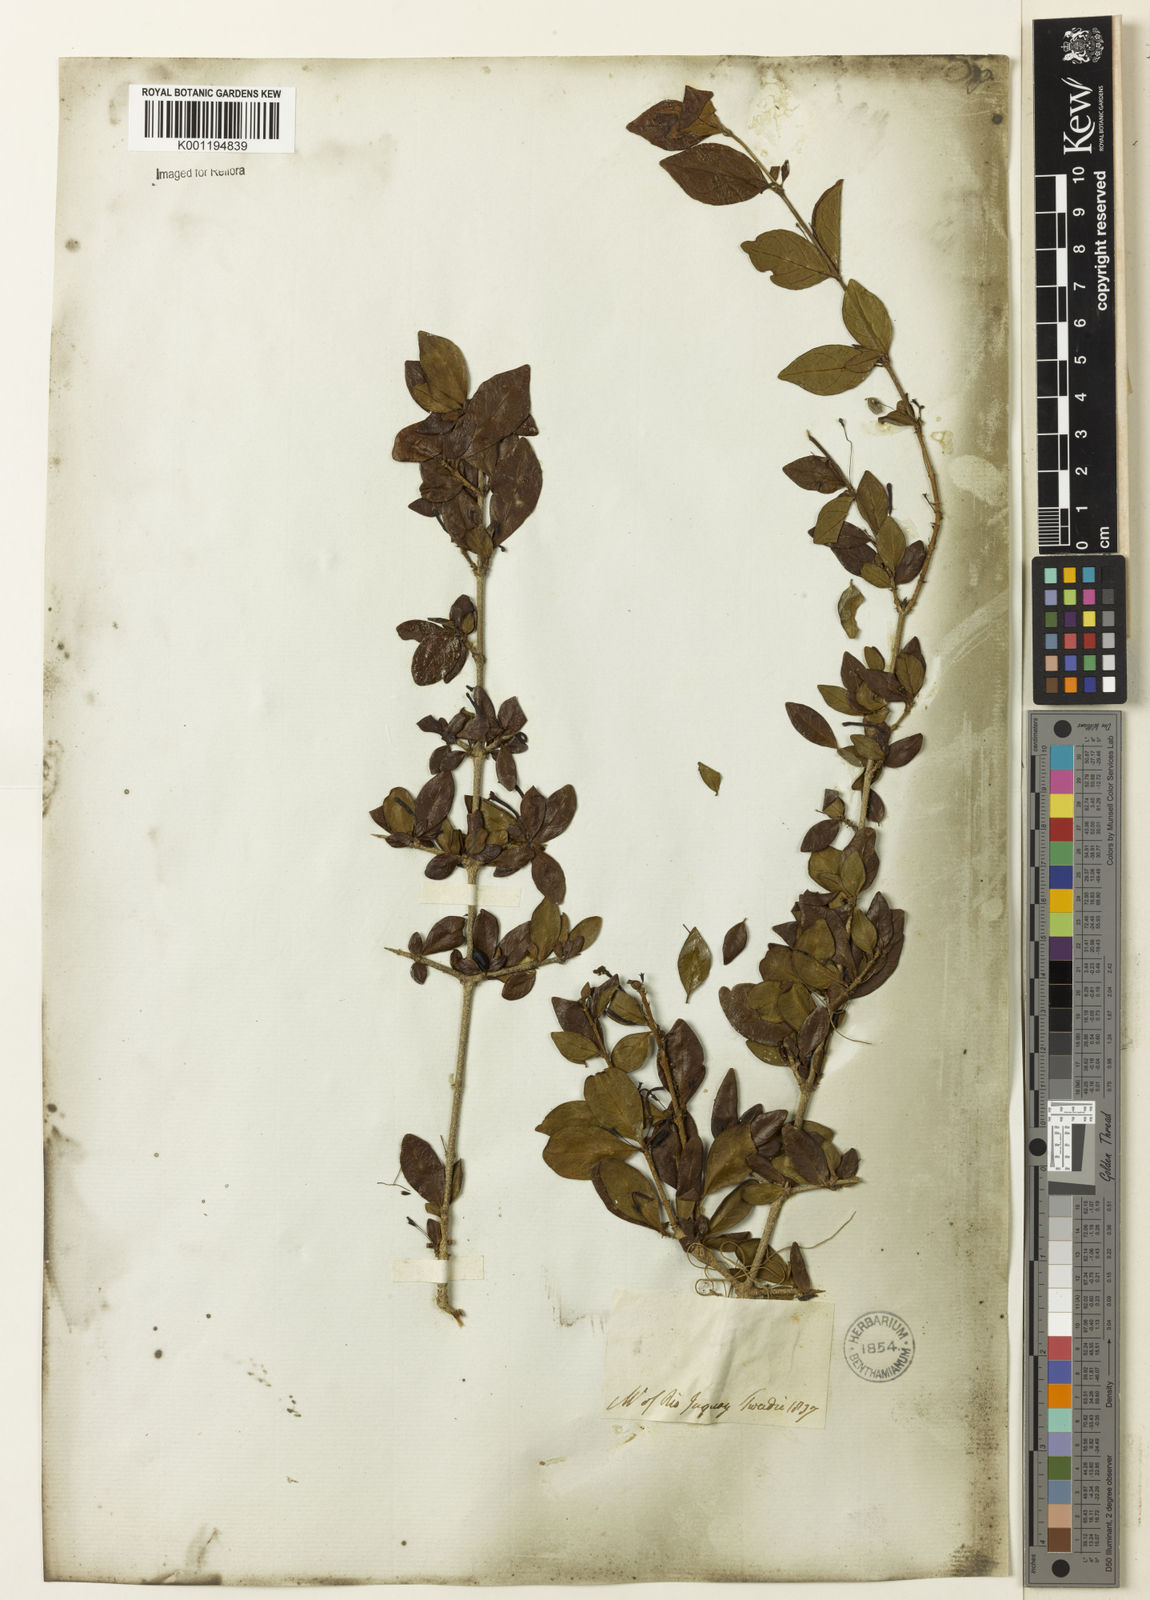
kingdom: Plantae
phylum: Tracheophyta
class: Magnoliopsida
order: Gentianales
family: Rubiaceae
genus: Chomelia
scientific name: Chomelia obtusa
